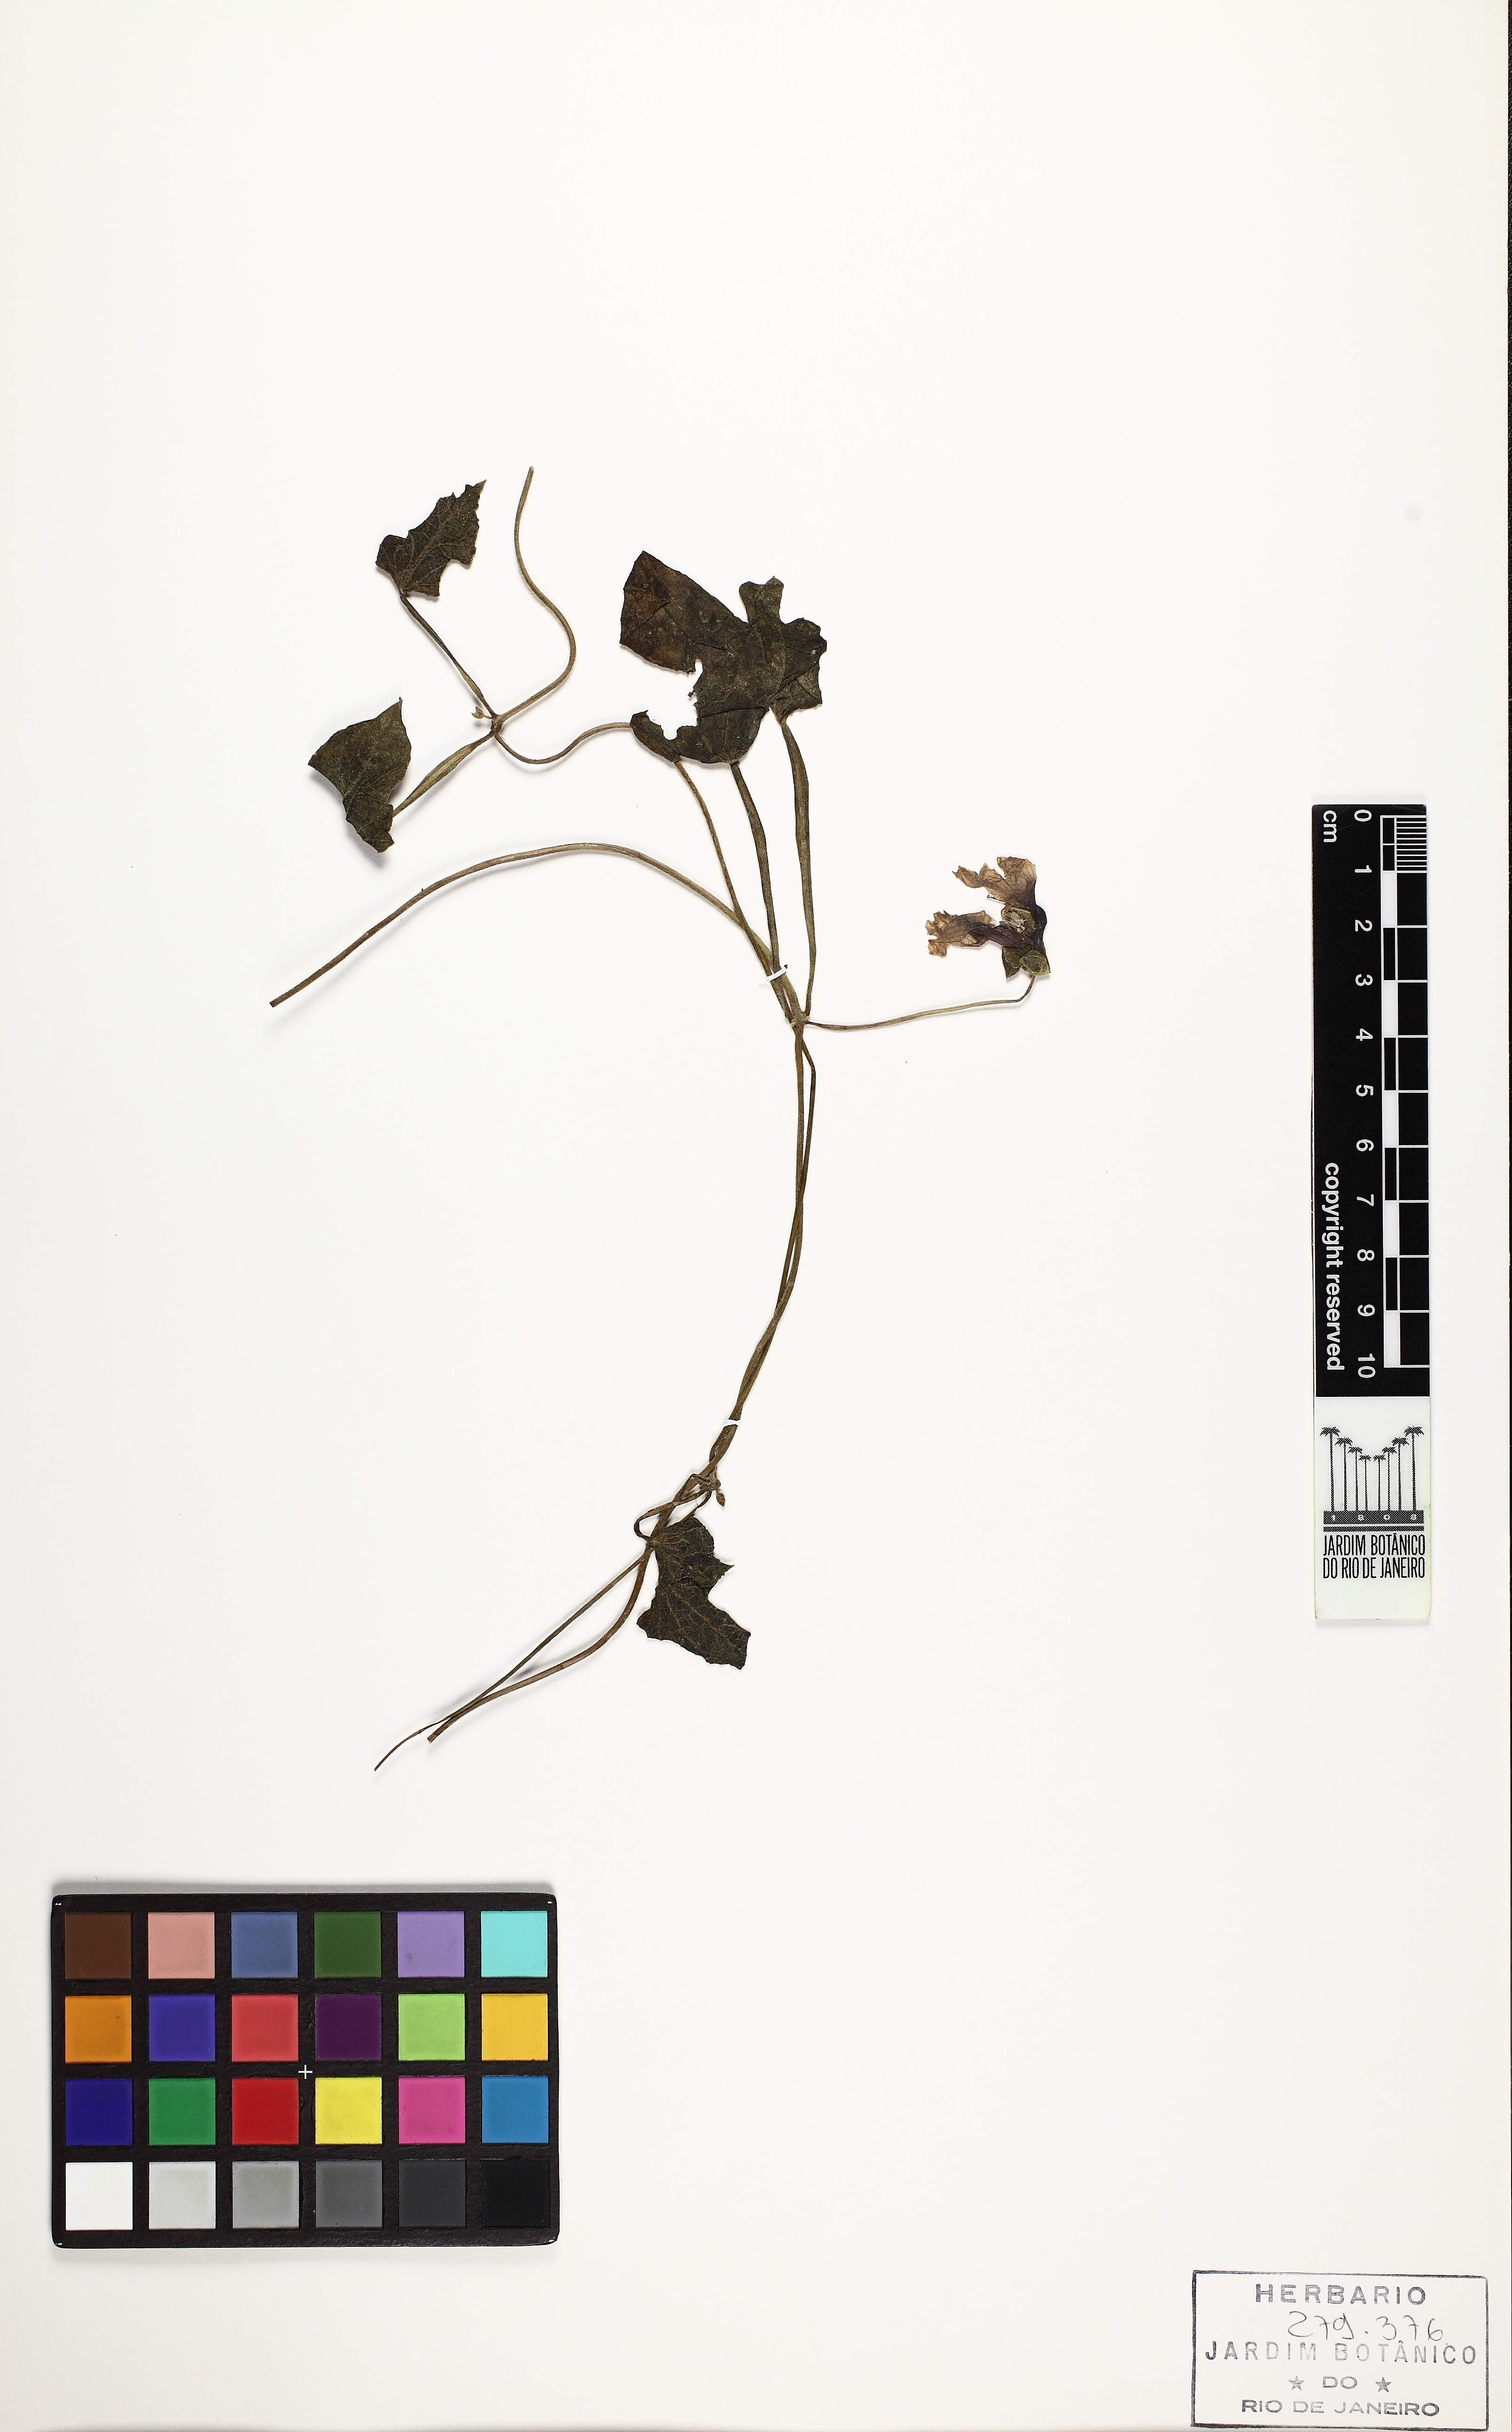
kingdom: Plantae
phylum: Tracheophyta
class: Magnoliopsida
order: Lamiales
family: Acanthaceae
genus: Thunbergia
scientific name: Thunbergia alata
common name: Blackeyed susan vine
